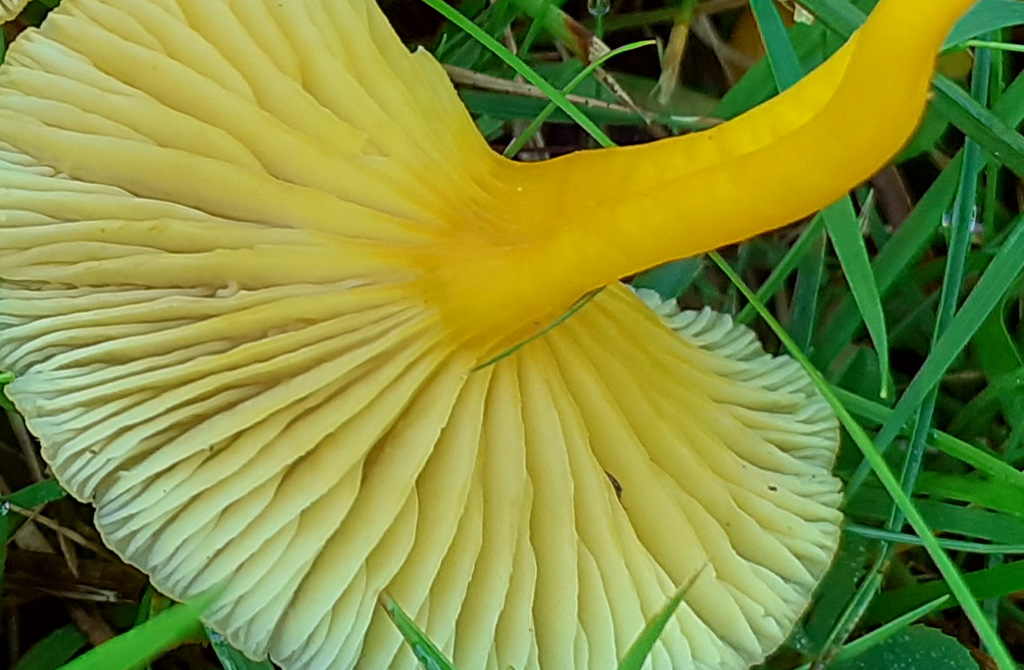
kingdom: Fungi
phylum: Basidiomycota
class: Agaricomycetes
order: Agaricales
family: Hygrophoraceae
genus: Hygrocybe
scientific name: Hygrocybe ceracea
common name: voksgul vokshat
